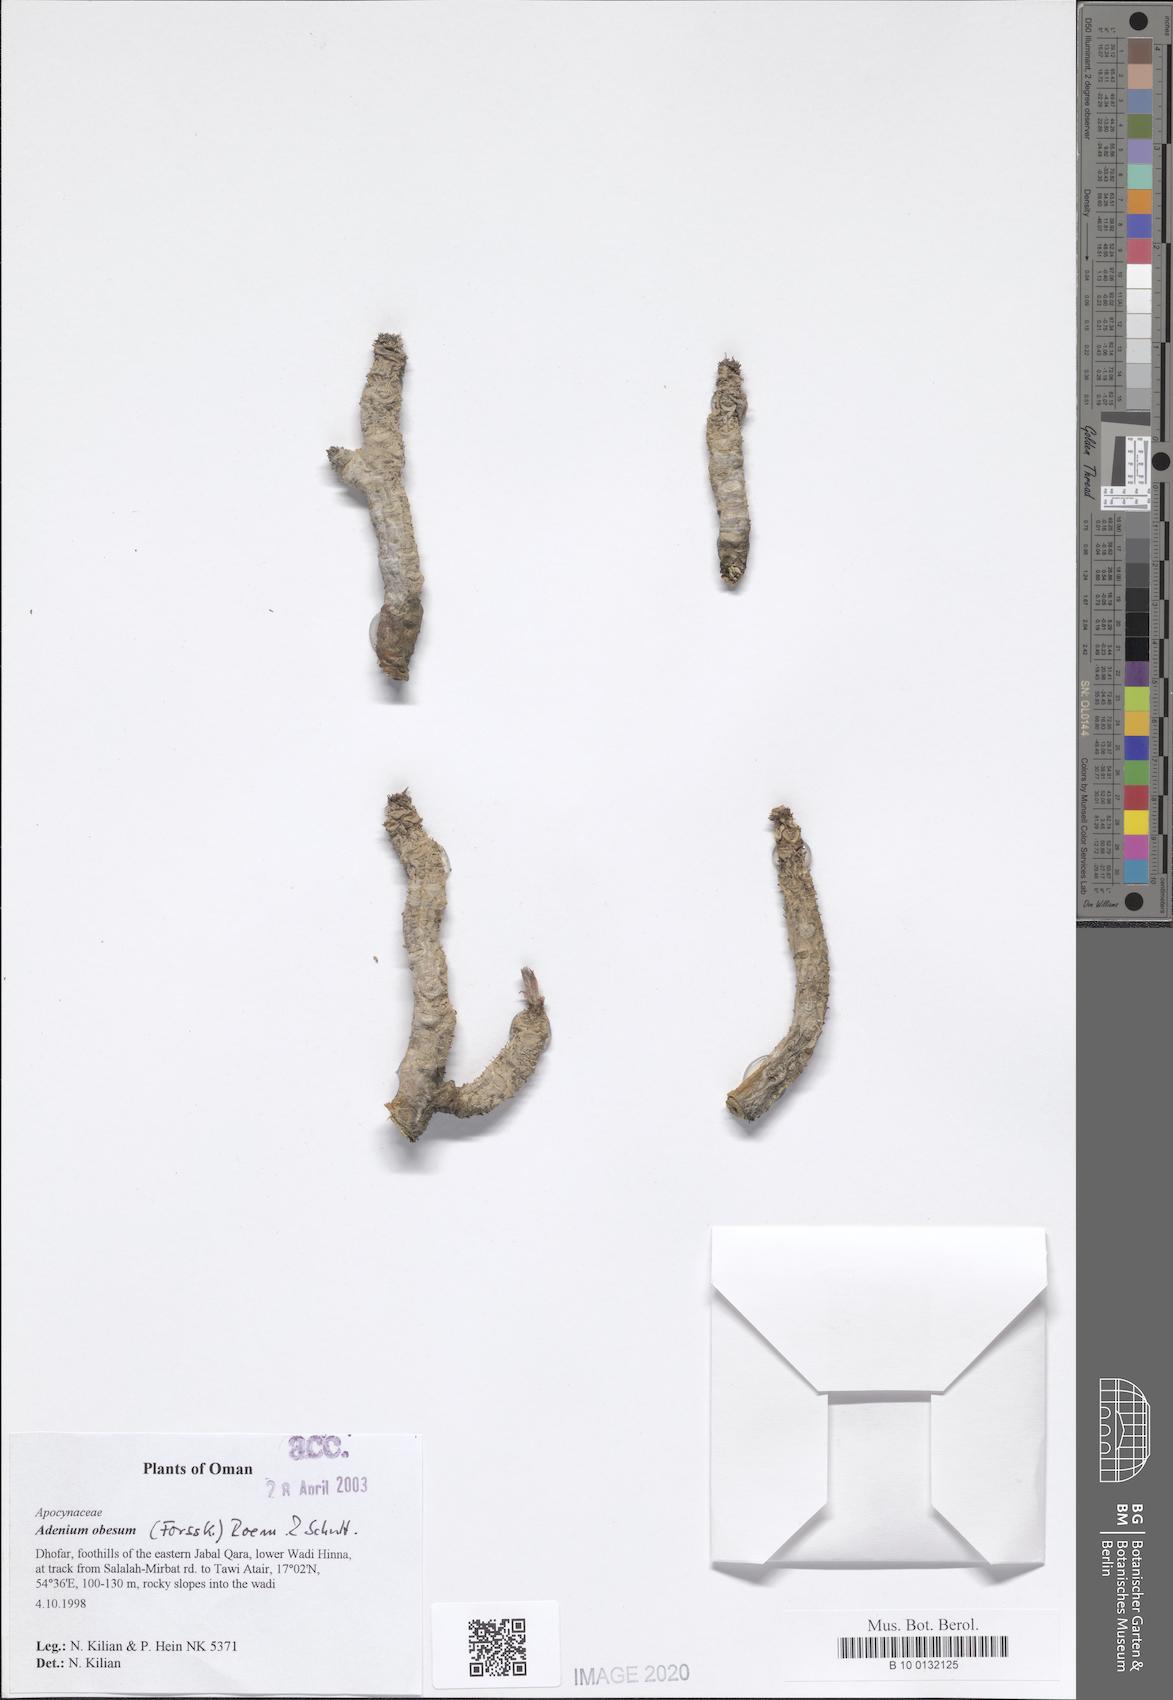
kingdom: Plantae
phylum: Tracheophyta
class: Magnoliopsida
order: Gentianales
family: Apocynaceae
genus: Adenium
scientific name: Adenium obesum
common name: Desert-rose
